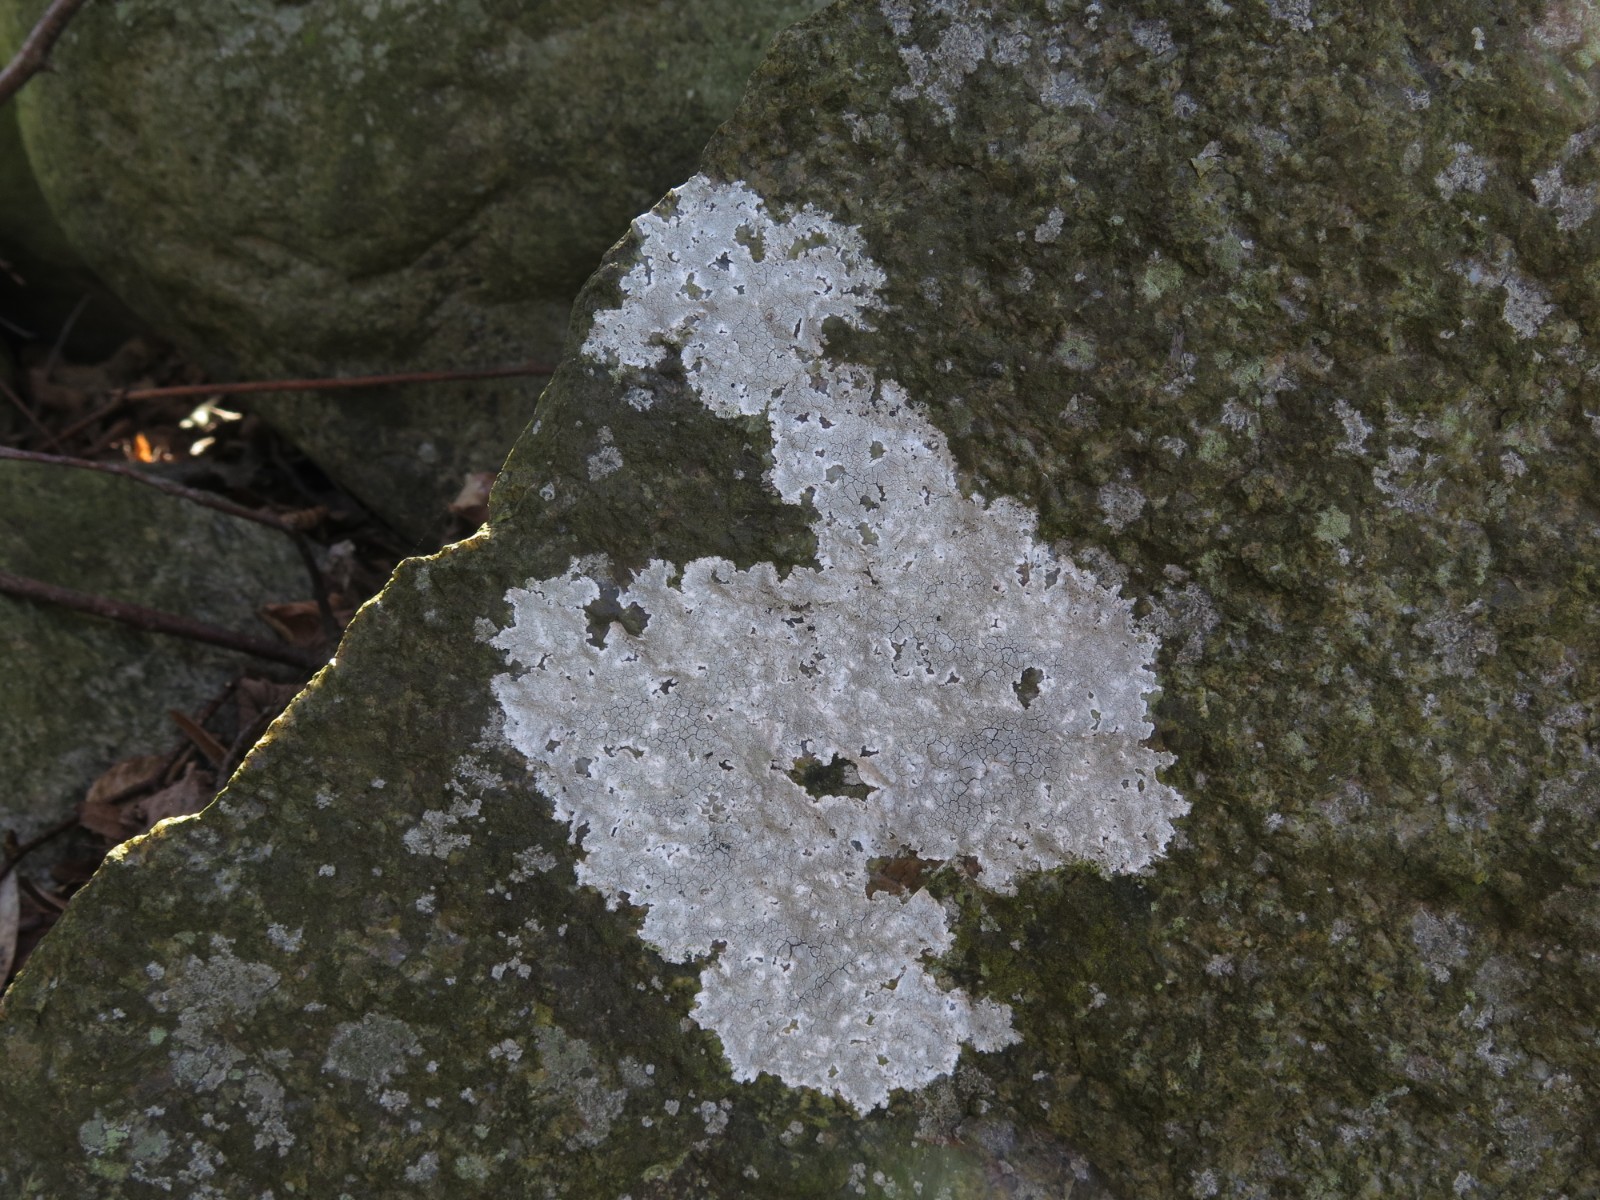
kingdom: Fungi
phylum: Ascomycota
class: Lecanoromycetes
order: Lecanorales
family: Lecanoraceae
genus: Glaucomaria
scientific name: Glaucomaria rupicola
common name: stengærde-kantskivelav
